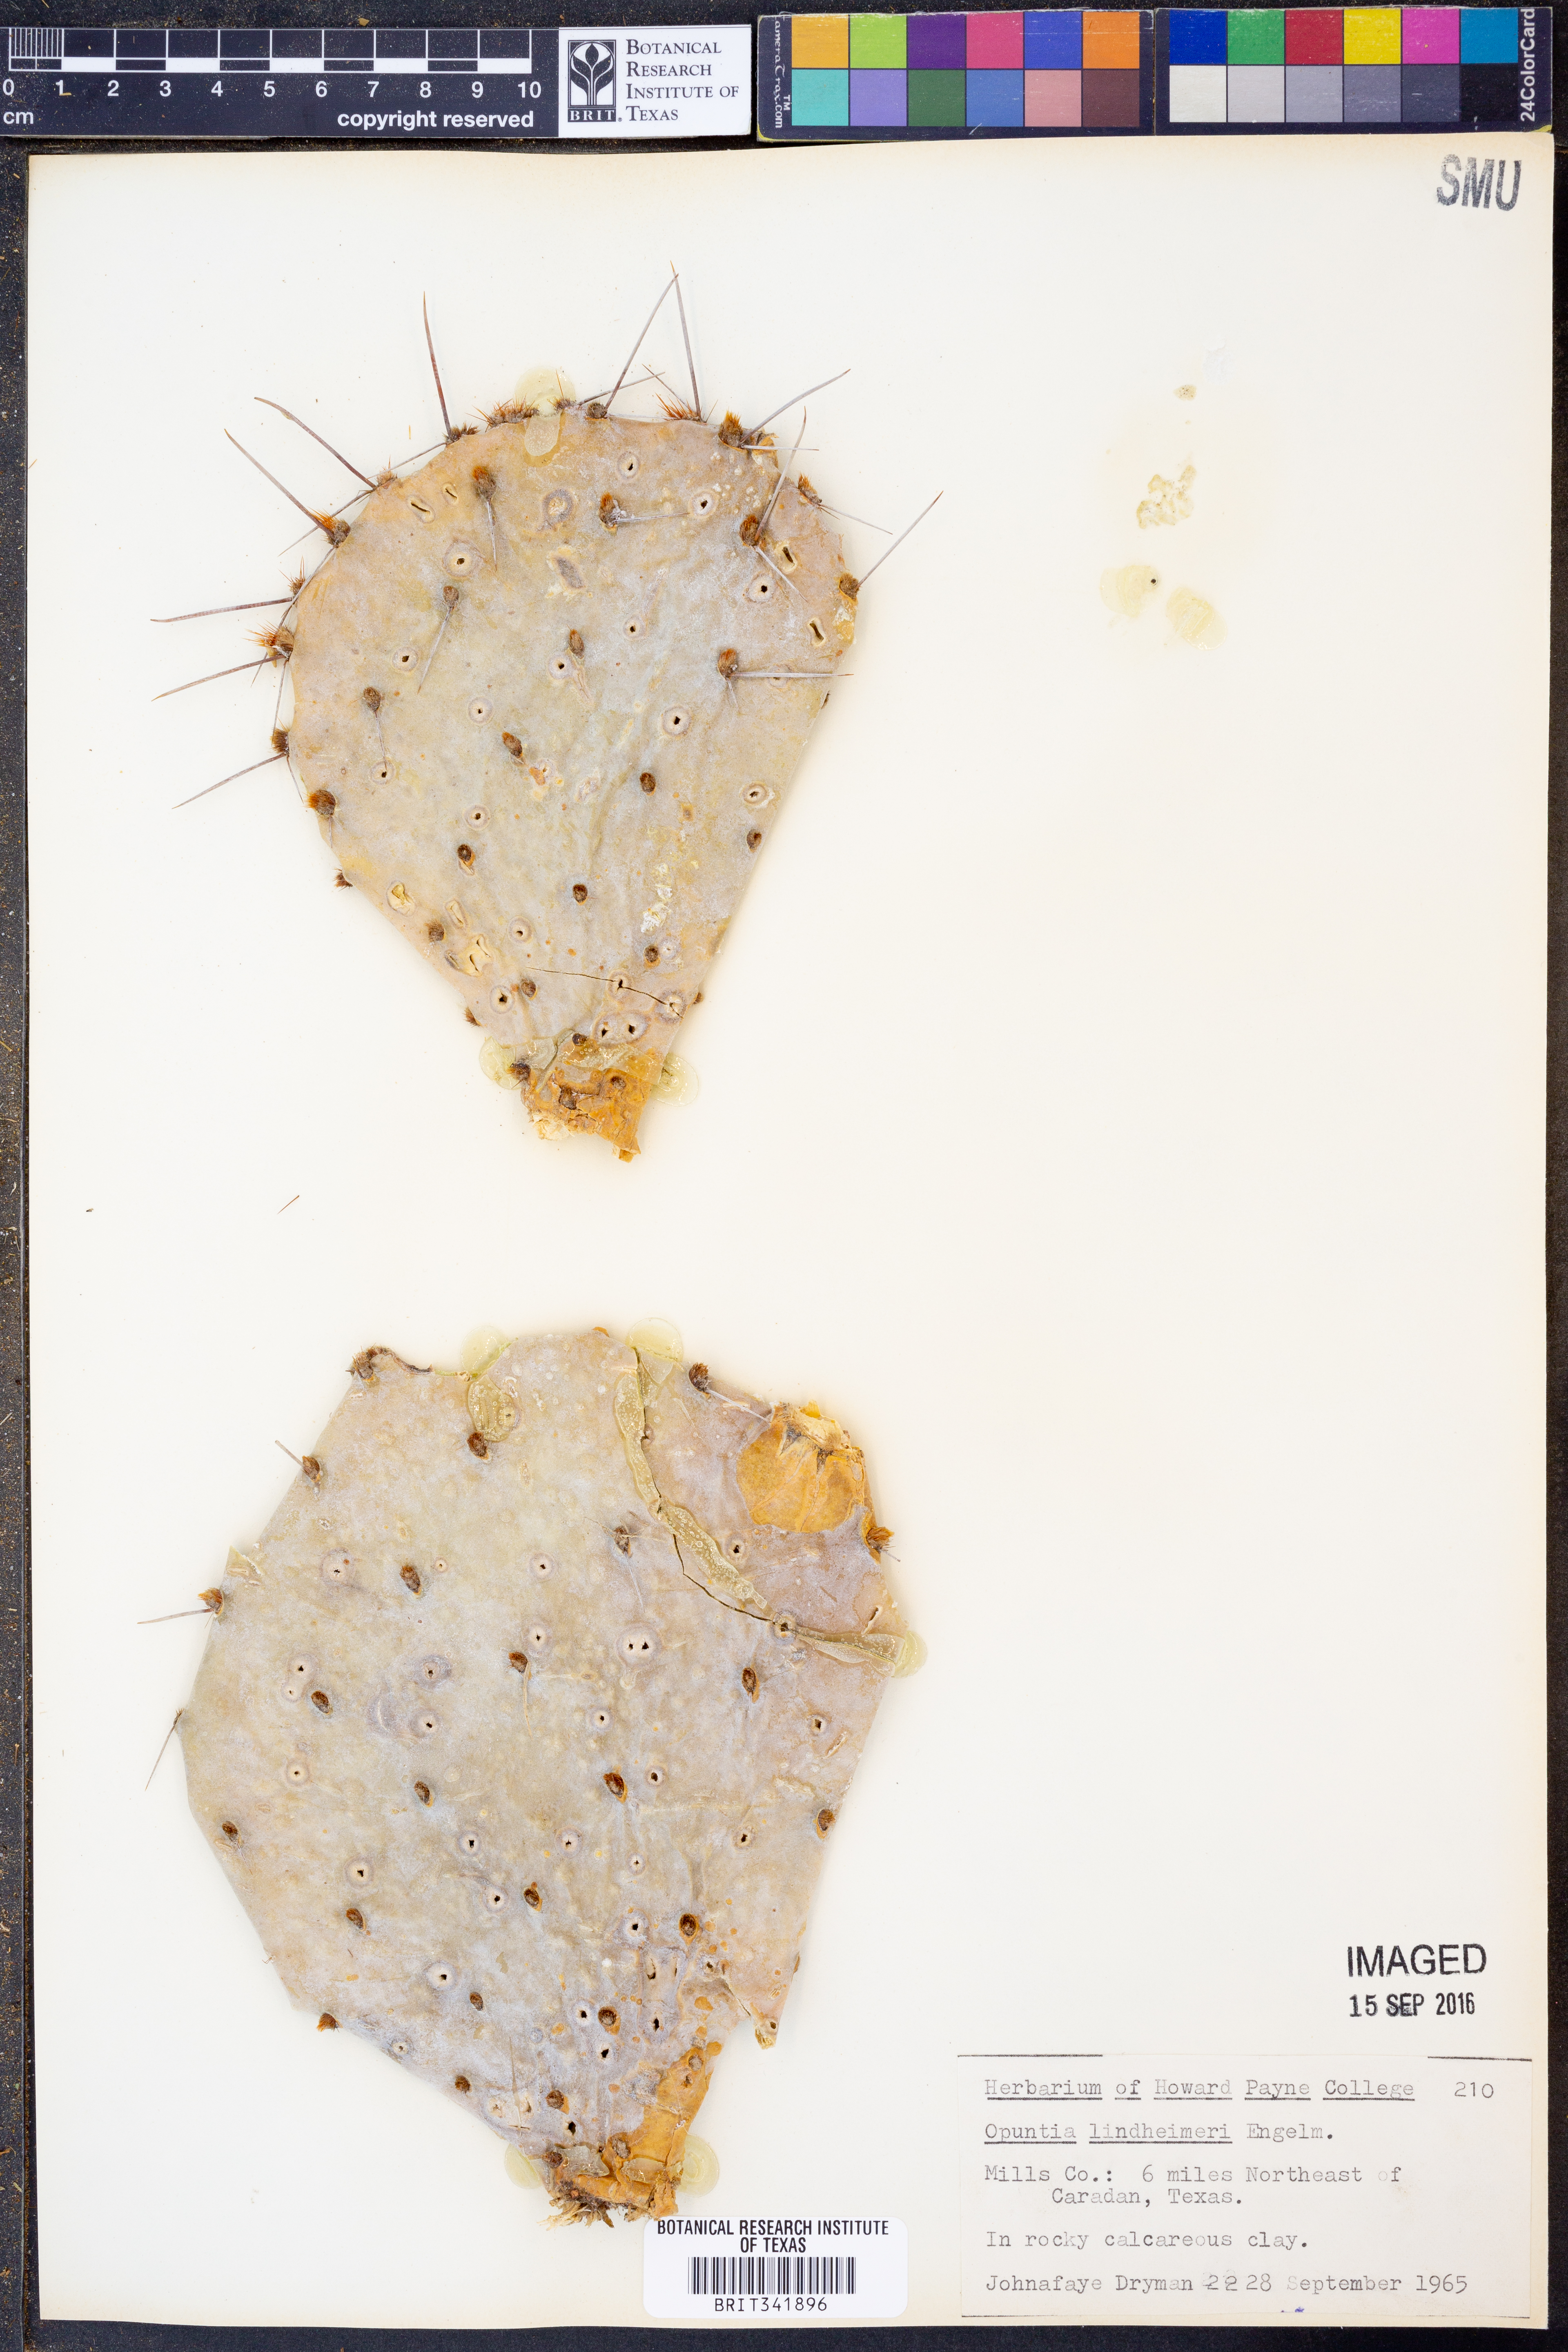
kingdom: Plantae
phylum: Tracheophyta
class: Magnoliopsida
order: Caryophyllales
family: Cactaceae
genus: Opuntia
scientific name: Opuntia engelmannii
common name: Cactus-apple
